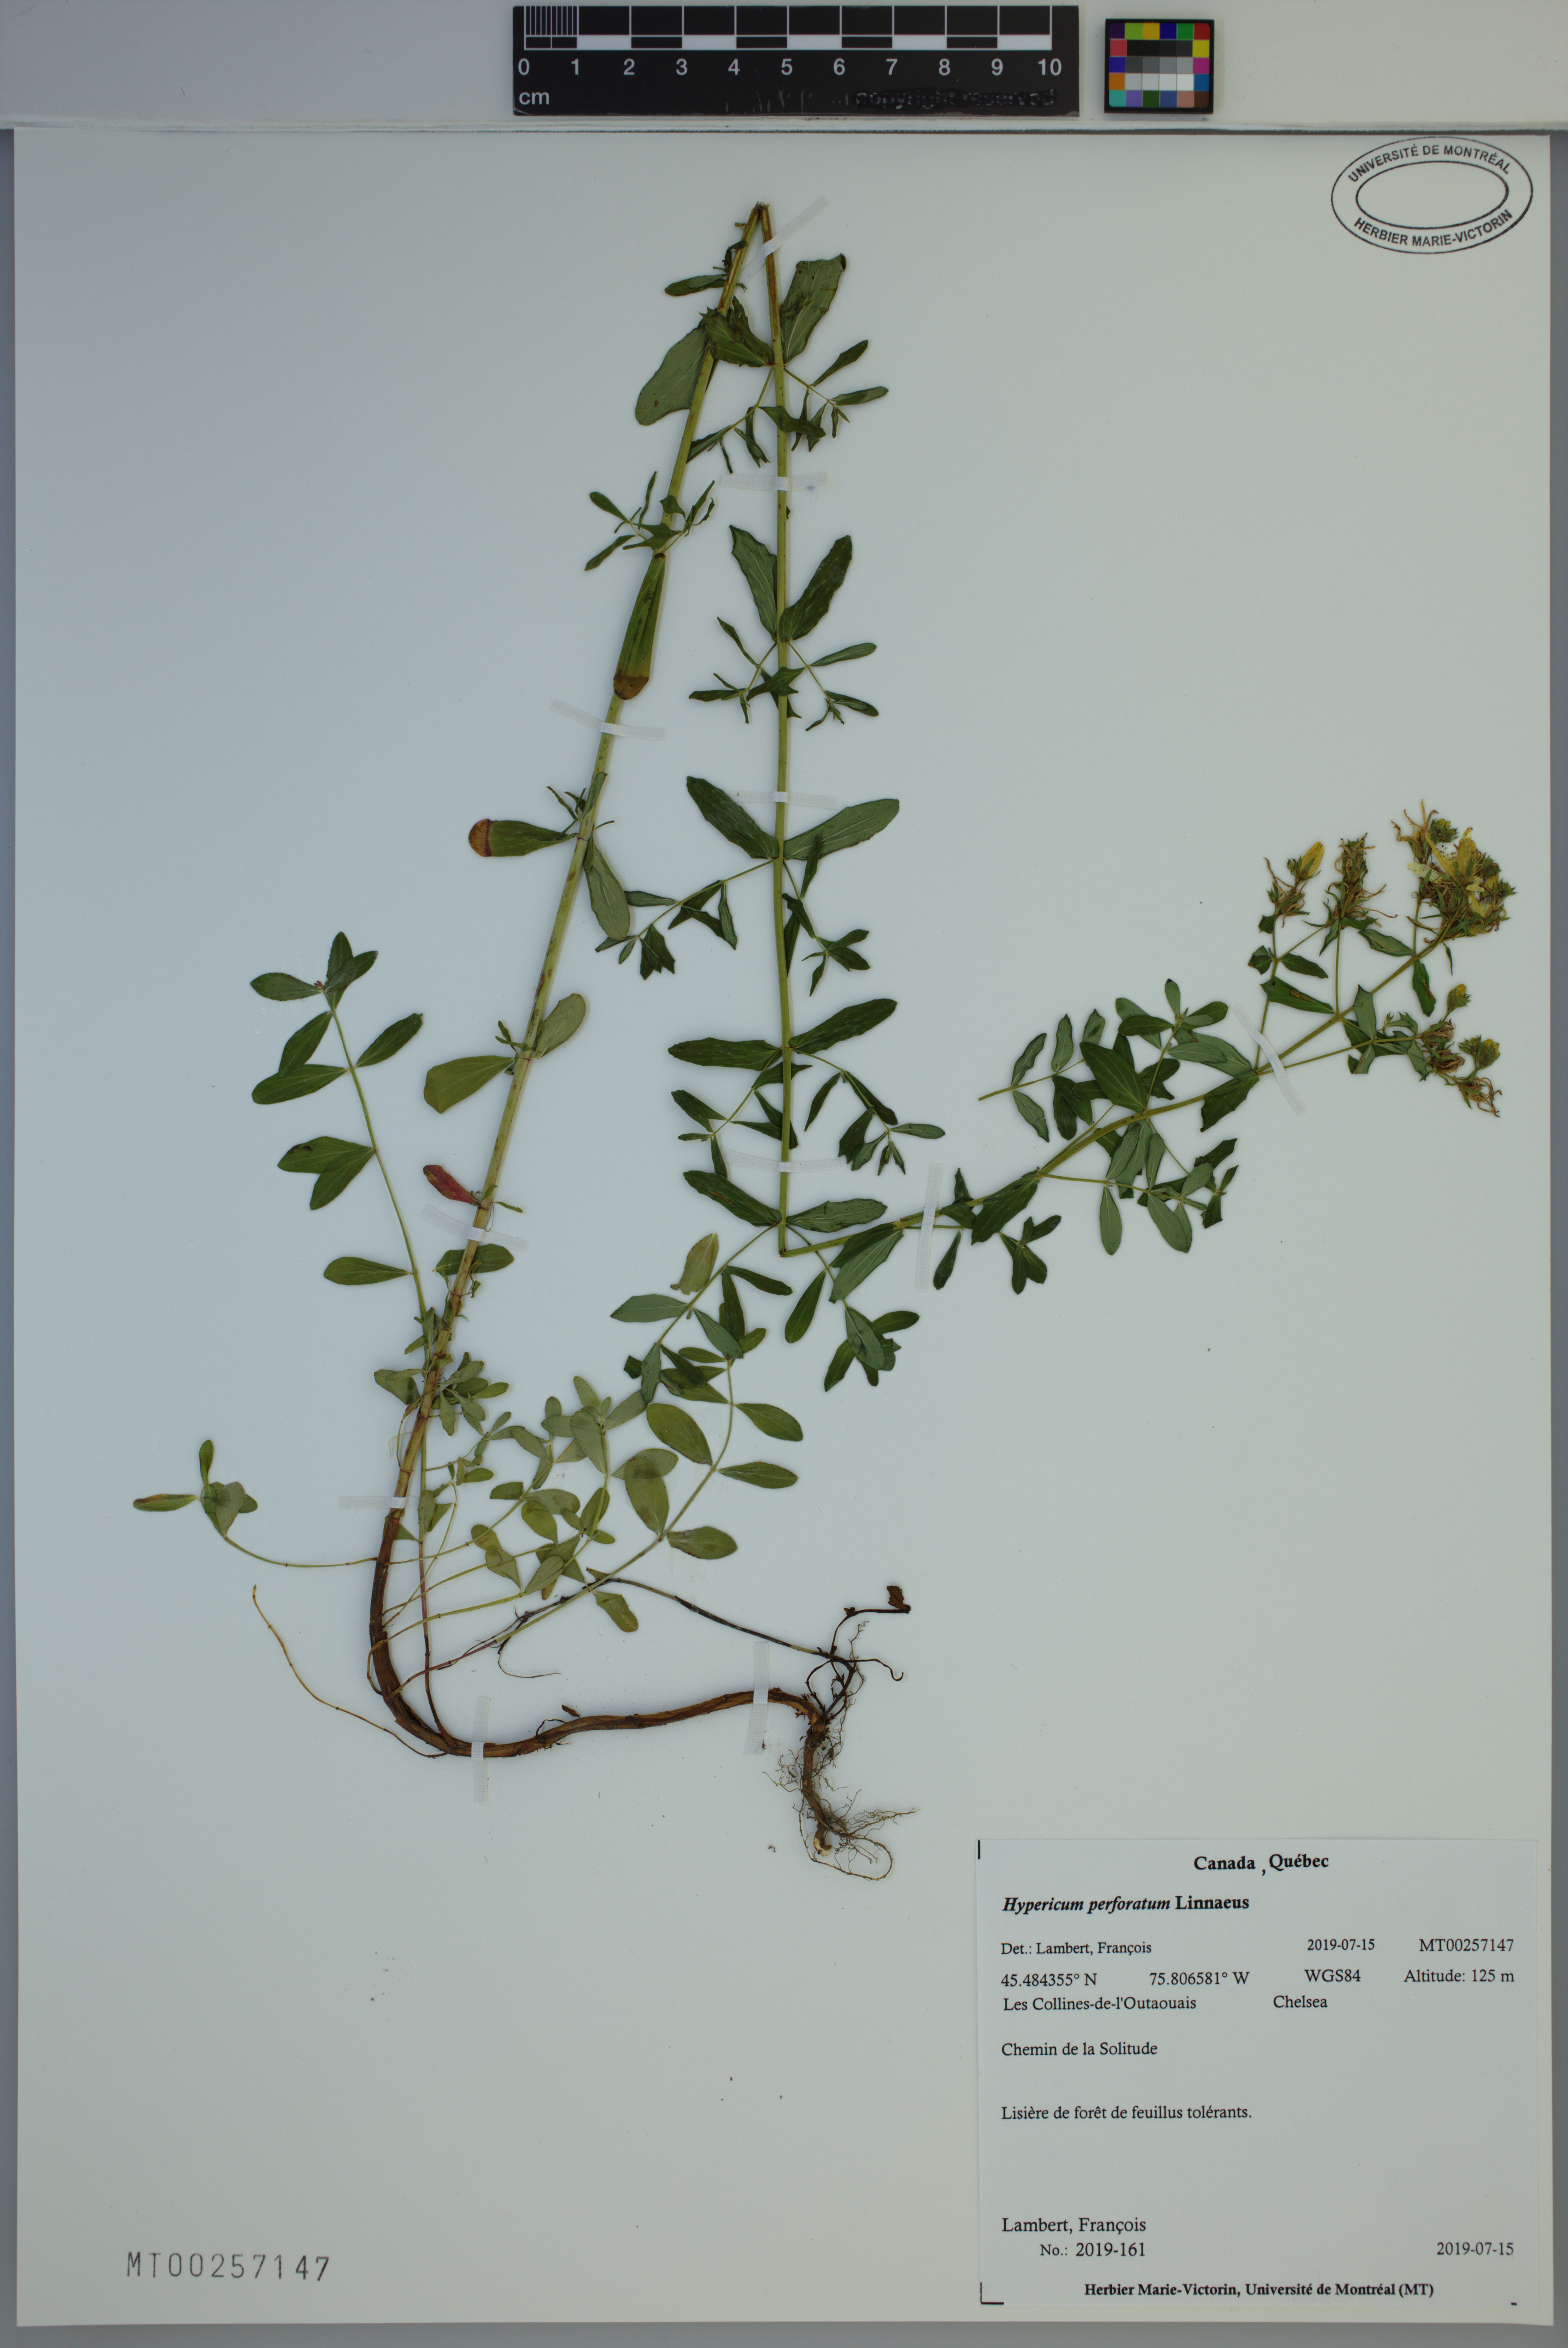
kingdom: Plantae
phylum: Tracheophyta
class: Magnoliopsida
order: Malpighiales
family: Hypericaceae
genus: Hypericum
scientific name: Hypericum perforatum
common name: Common st. johnswort
